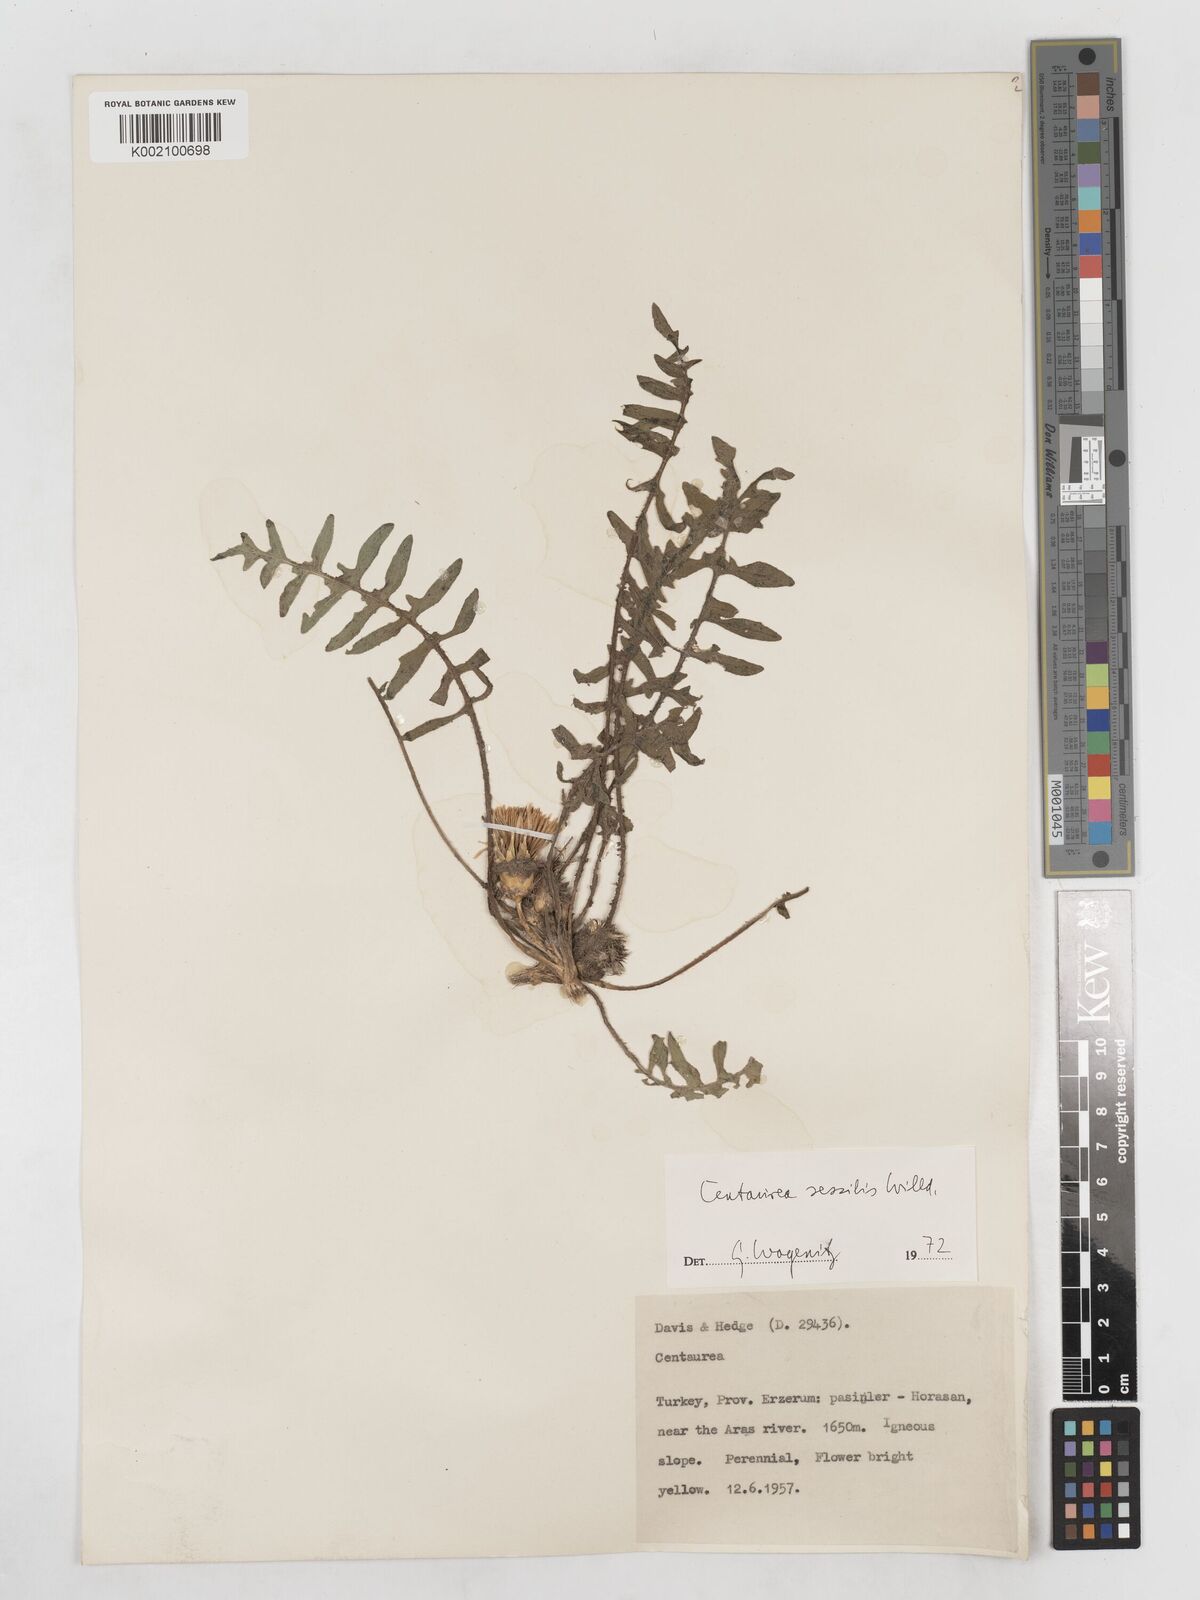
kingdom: Plantae
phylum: Tracheophyta
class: Magnoliopsida
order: Asterales
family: Asteraceae
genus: Centaurea
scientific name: Centaurea oltensis
